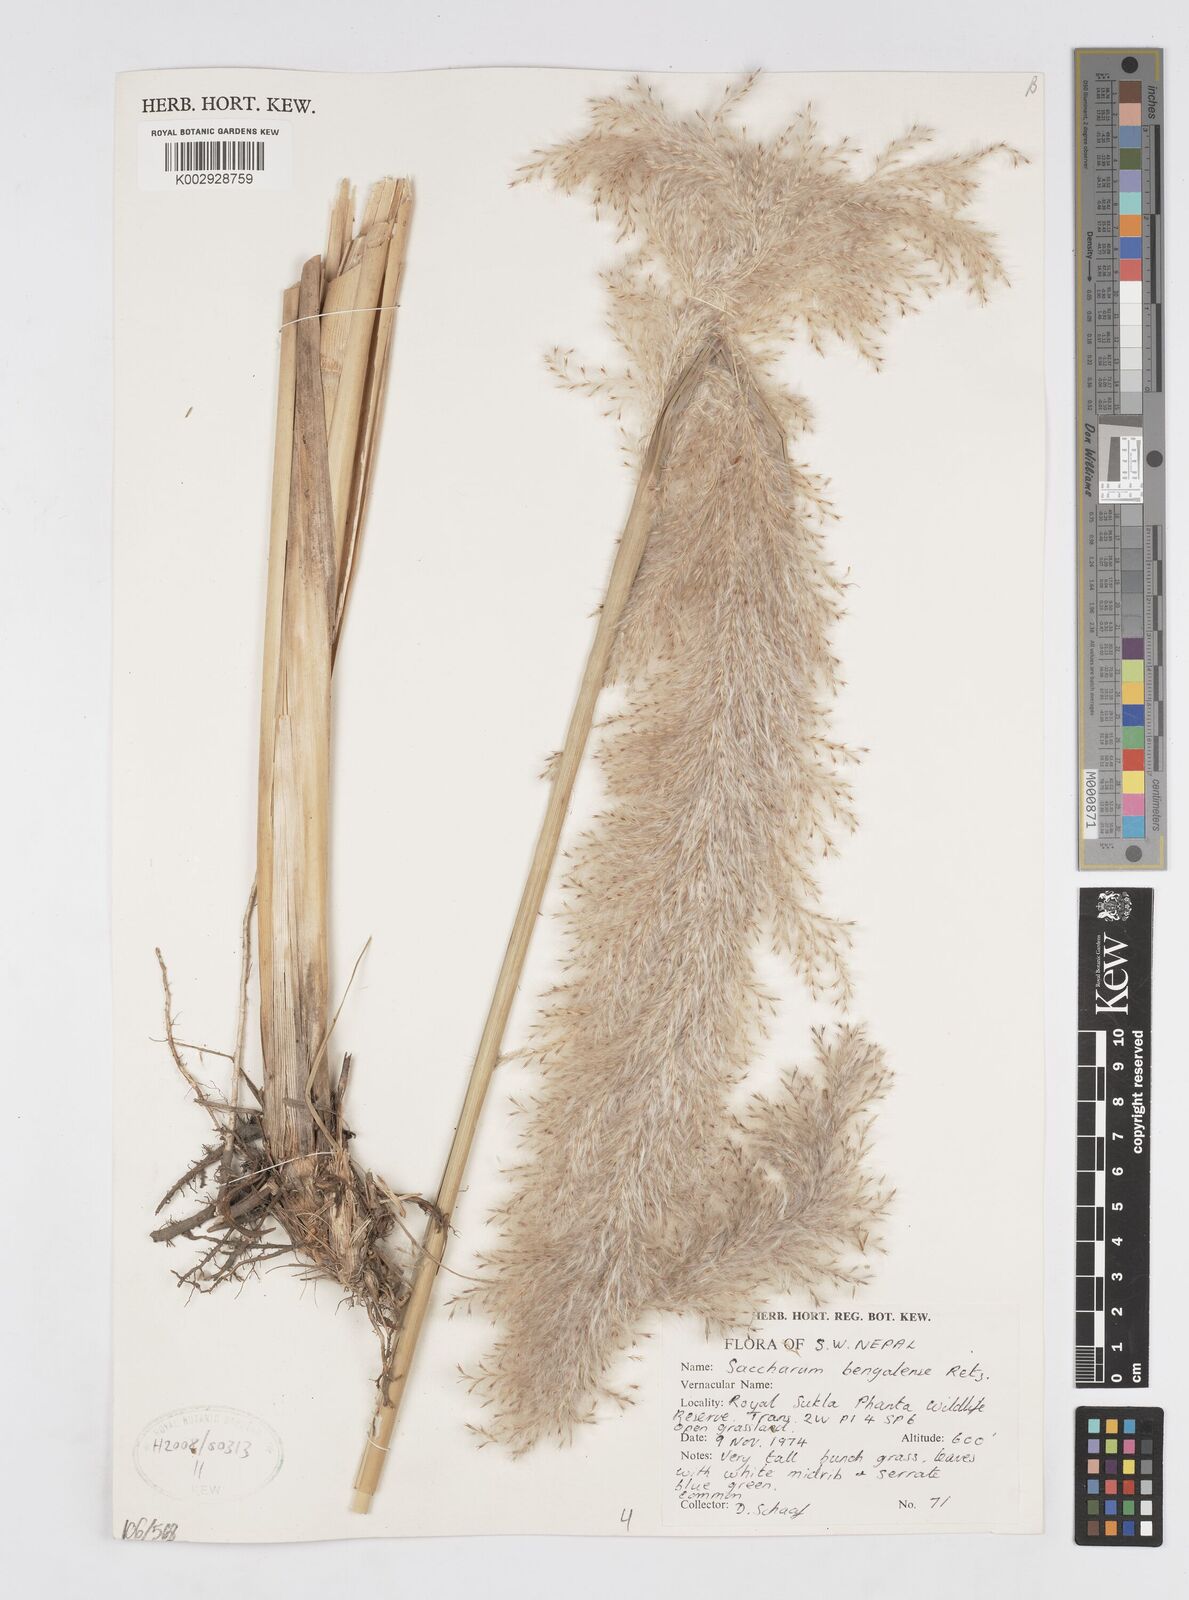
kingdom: Plantae
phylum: Tracheophyta
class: Liliopsida
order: Poales
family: Poaceae
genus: Tripidium
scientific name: Tripidium bengalense
